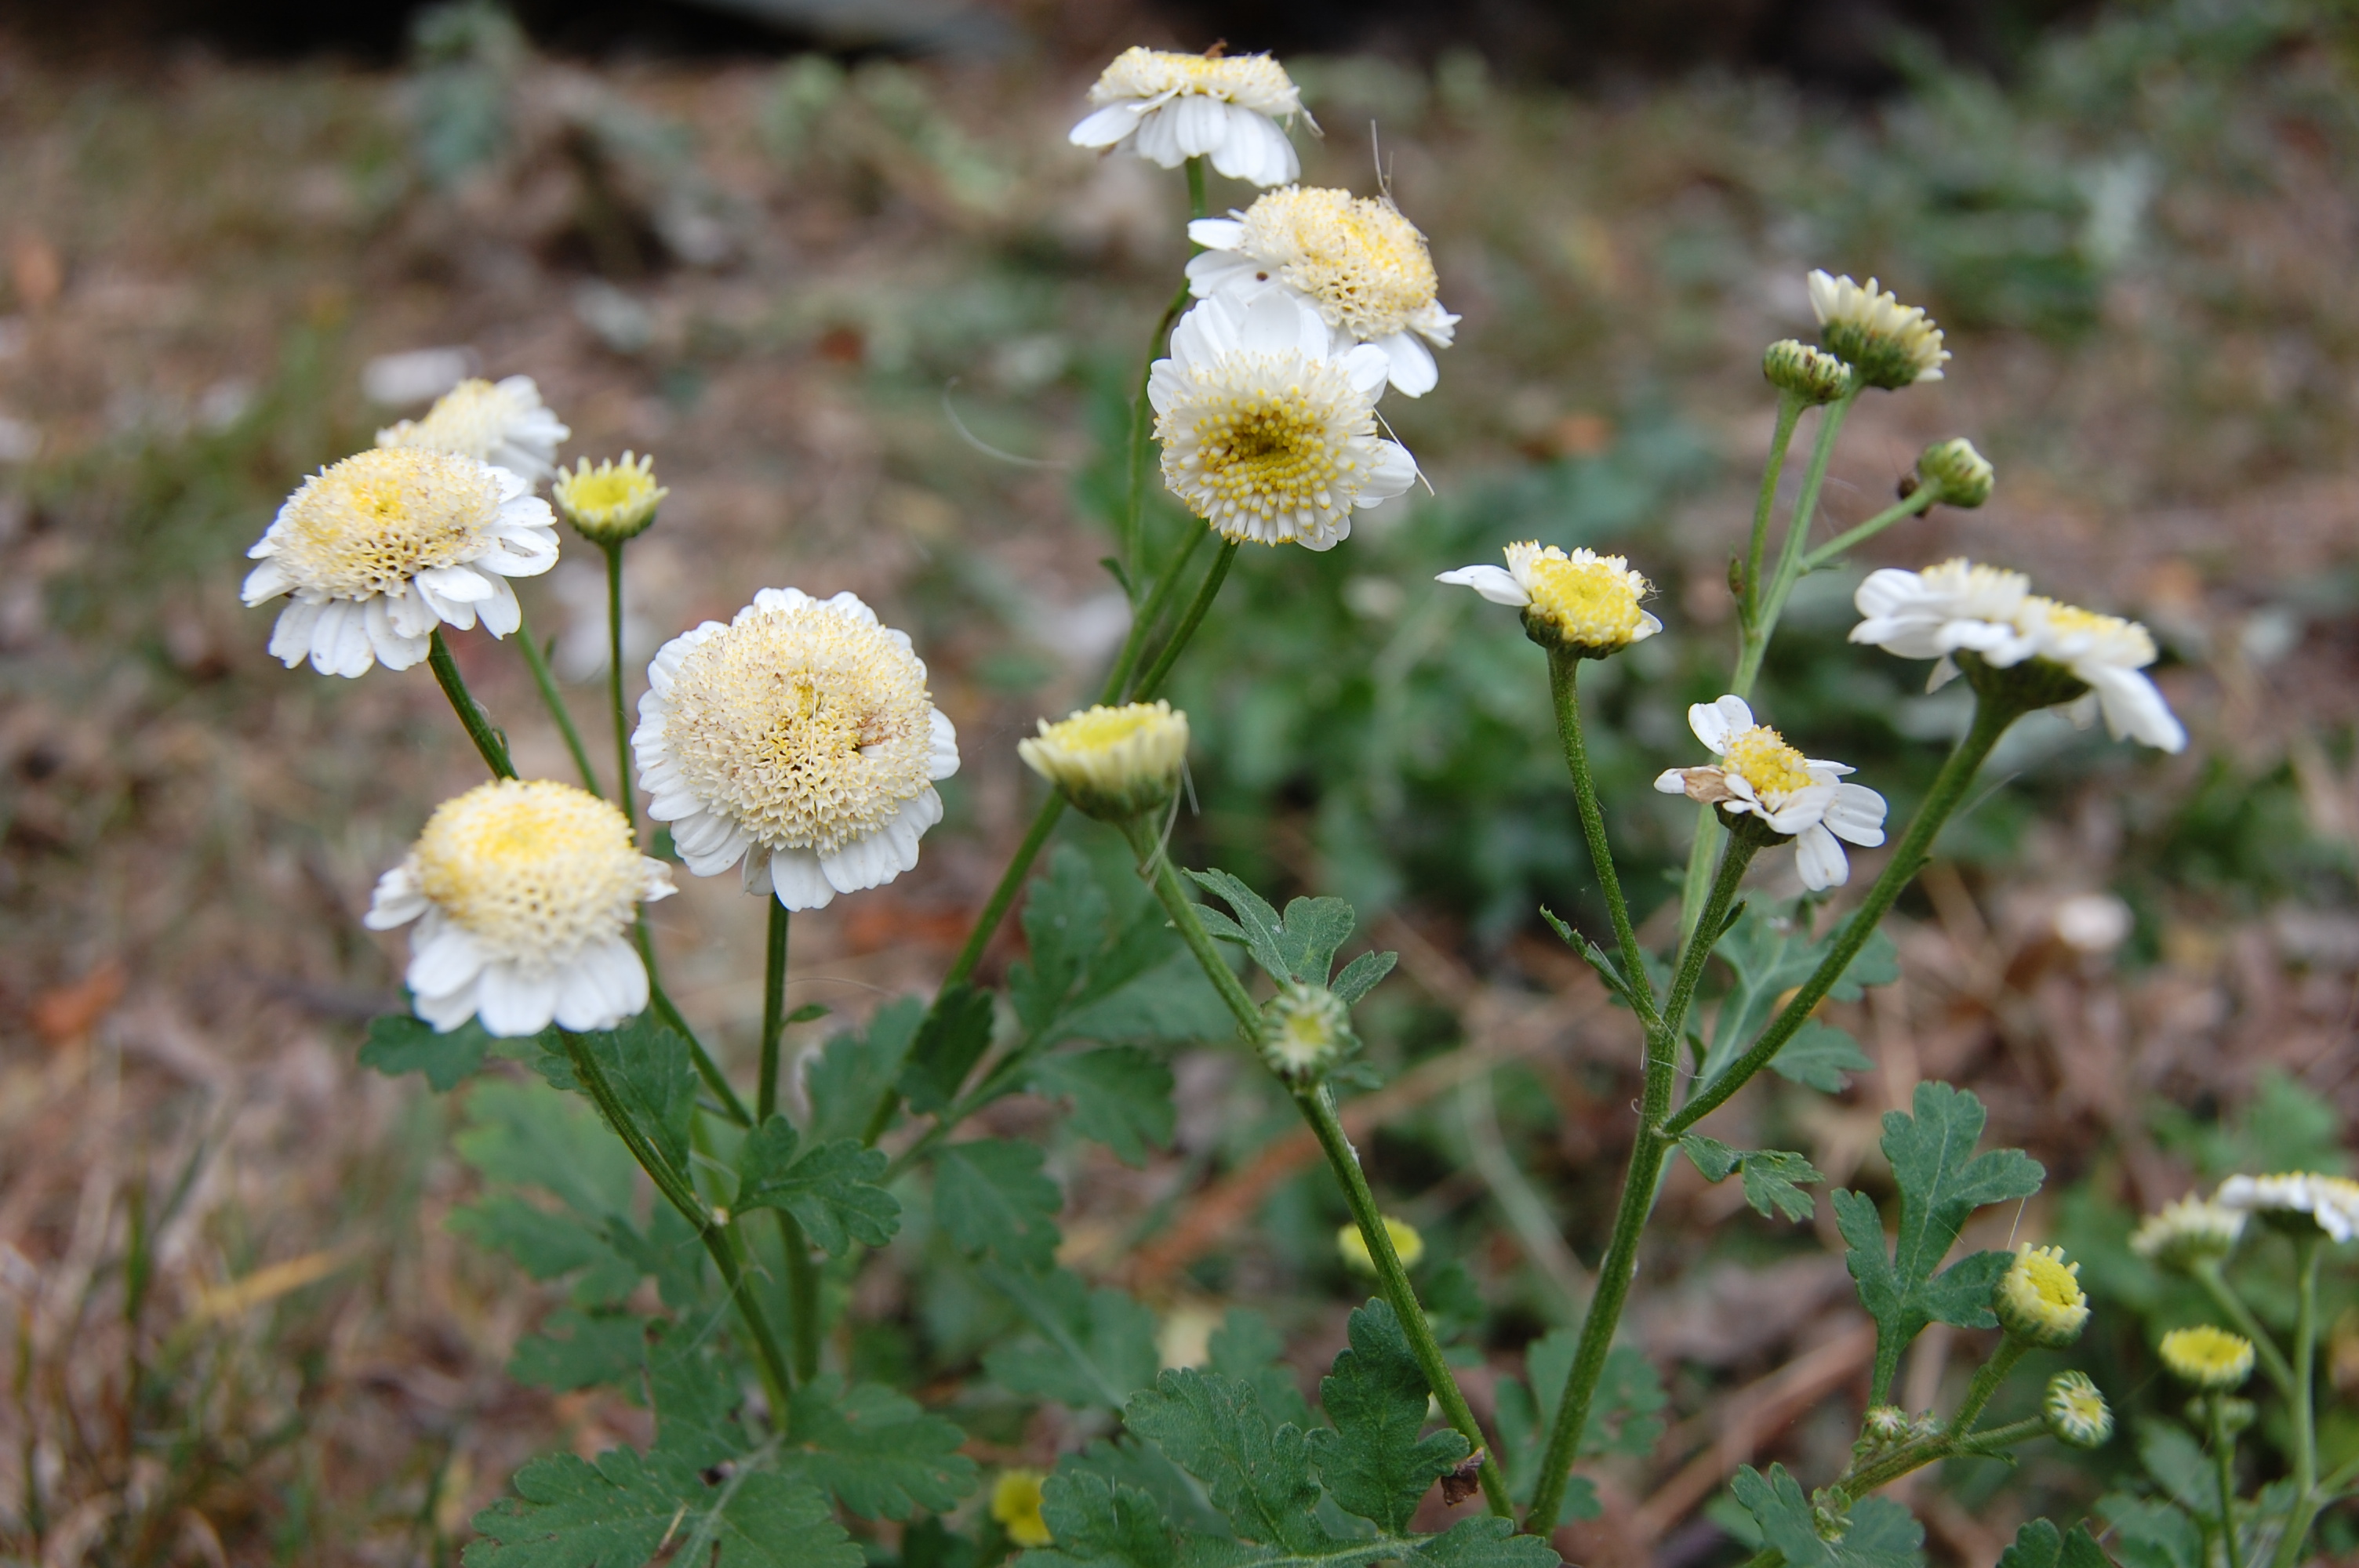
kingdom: Plantae
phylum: Tracheophyta
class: Magnoliopsida
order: Asterales
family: Asteraceae
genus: Tanacetum
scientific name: Tanacetum parthenium
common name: Feverfew
